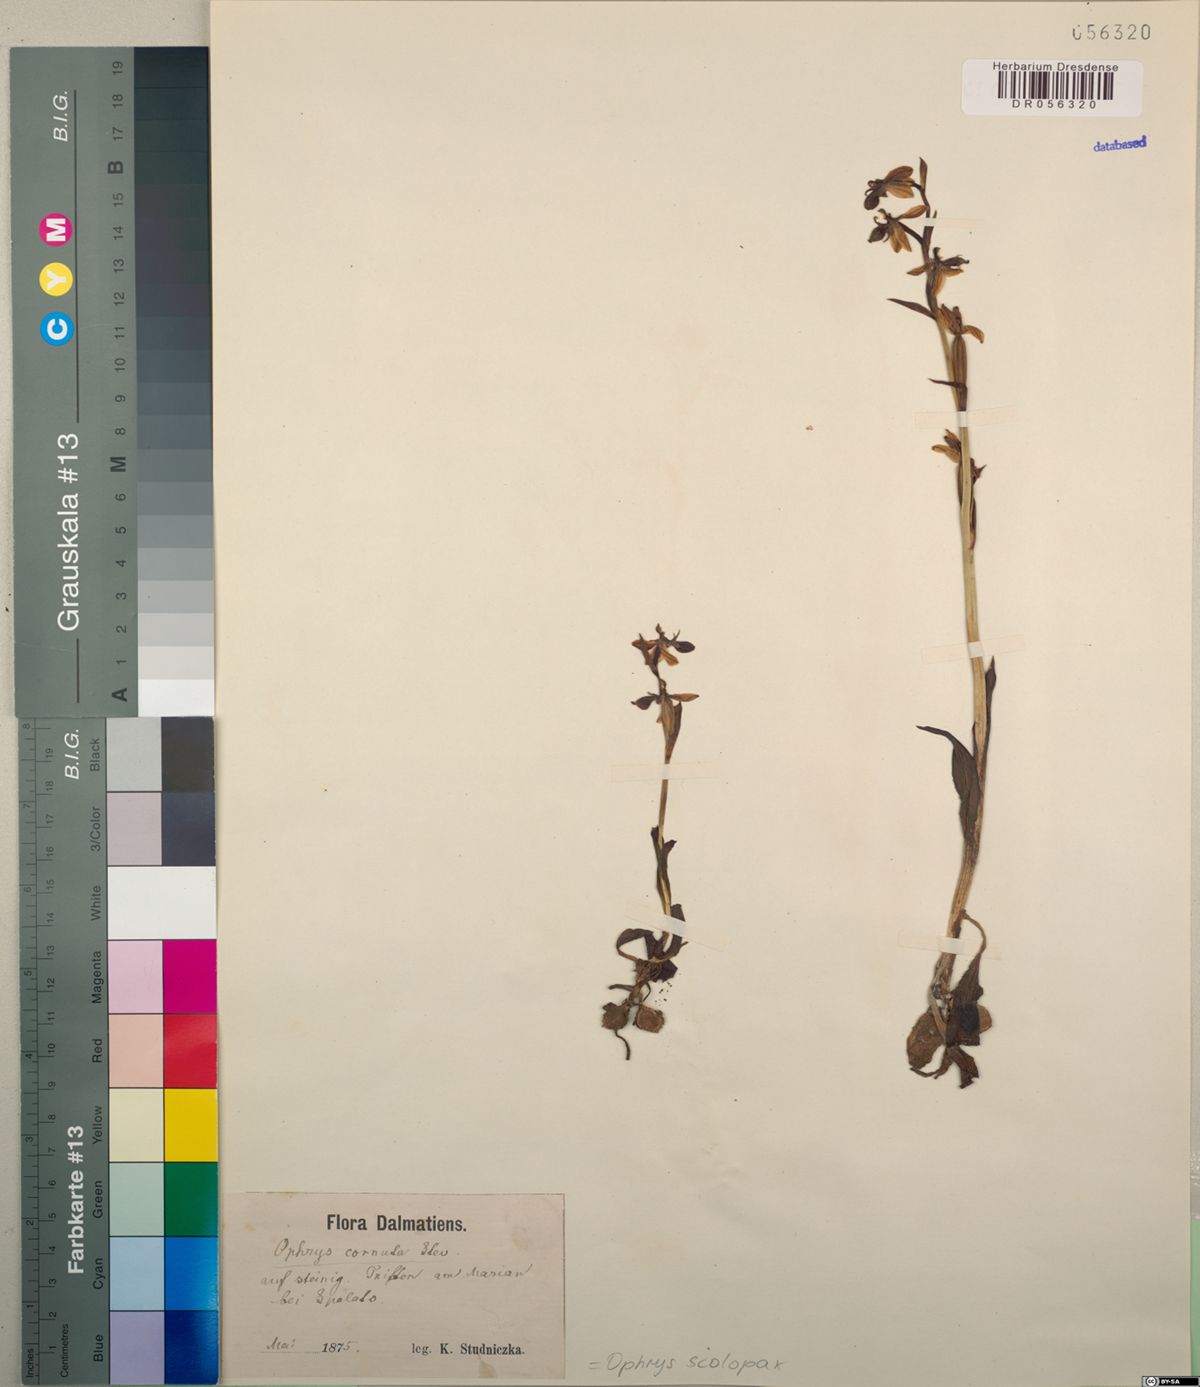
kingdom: Plantae
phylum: Tracheophyta
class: Liliopsida
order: Asparagales
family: Orchidaceae
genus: Ophrys
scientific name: Ophrys sphegodes
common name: Early spider-orchid
